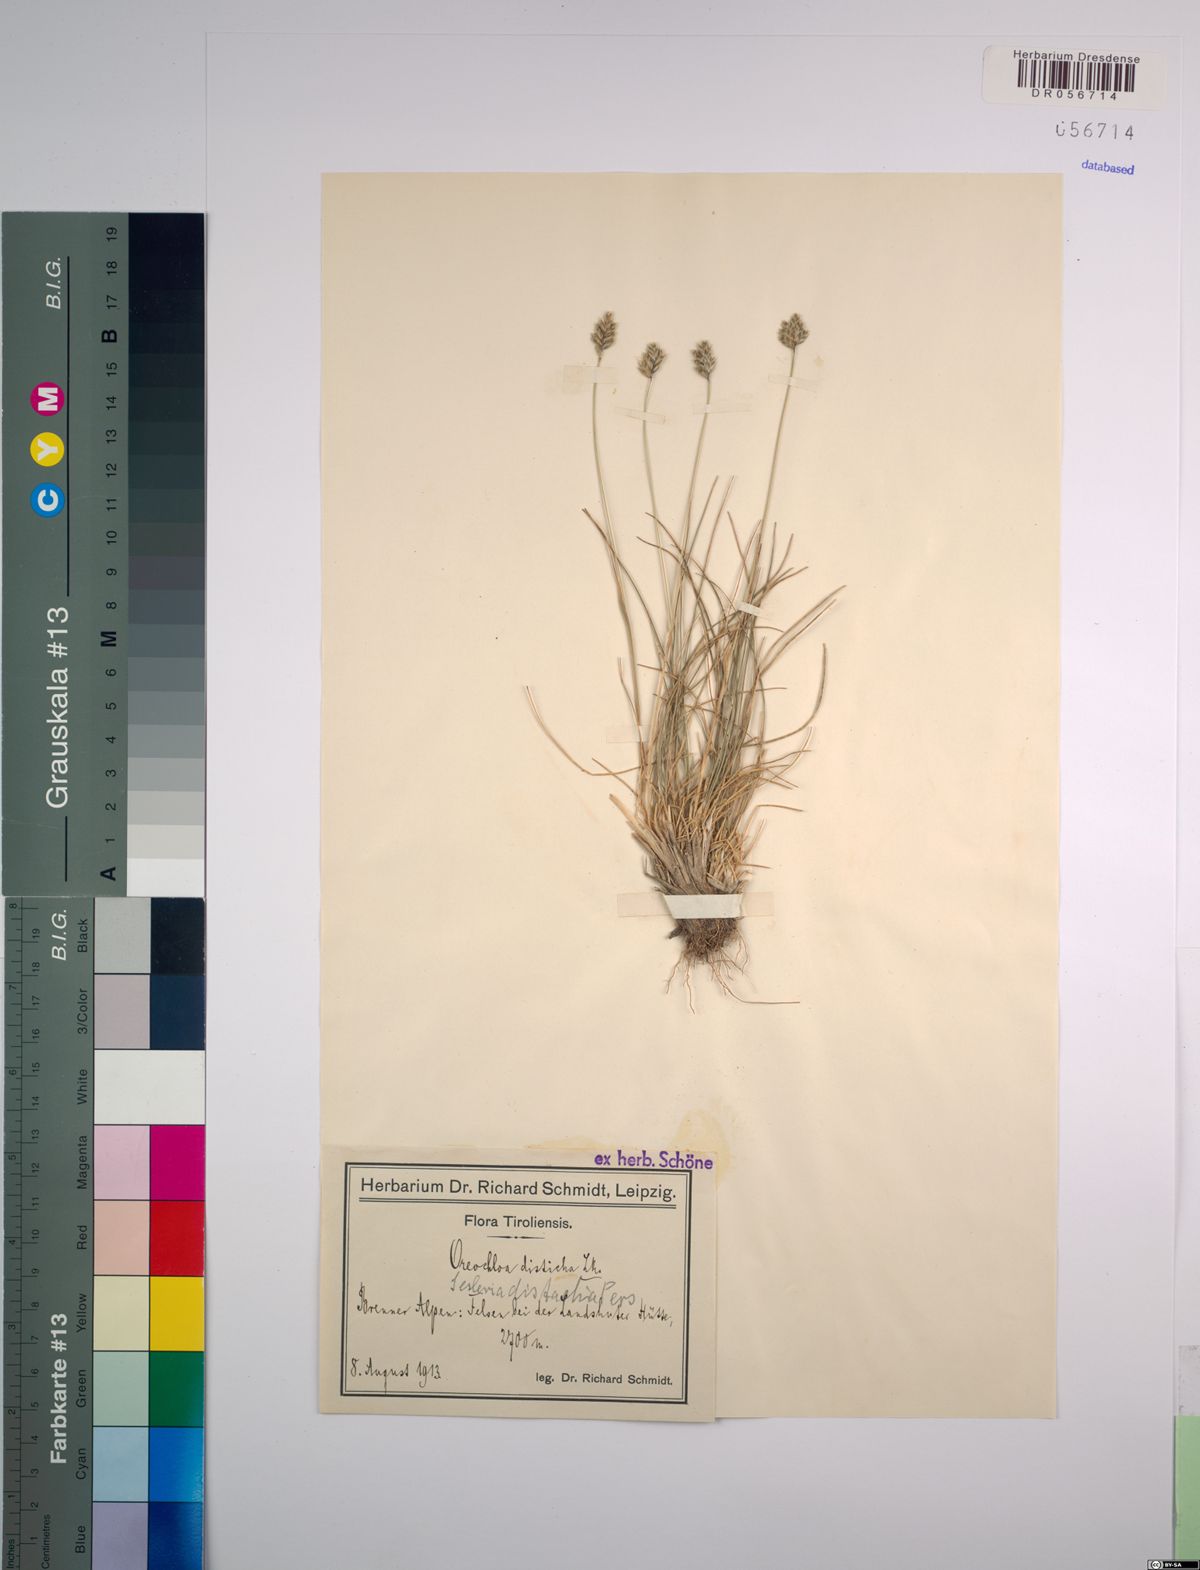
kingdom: Plantae
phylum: Tracheophyta
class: Liliopsida
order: Poales
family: Poaceae
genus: Oreochloa
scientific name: Oreochloa disticha
